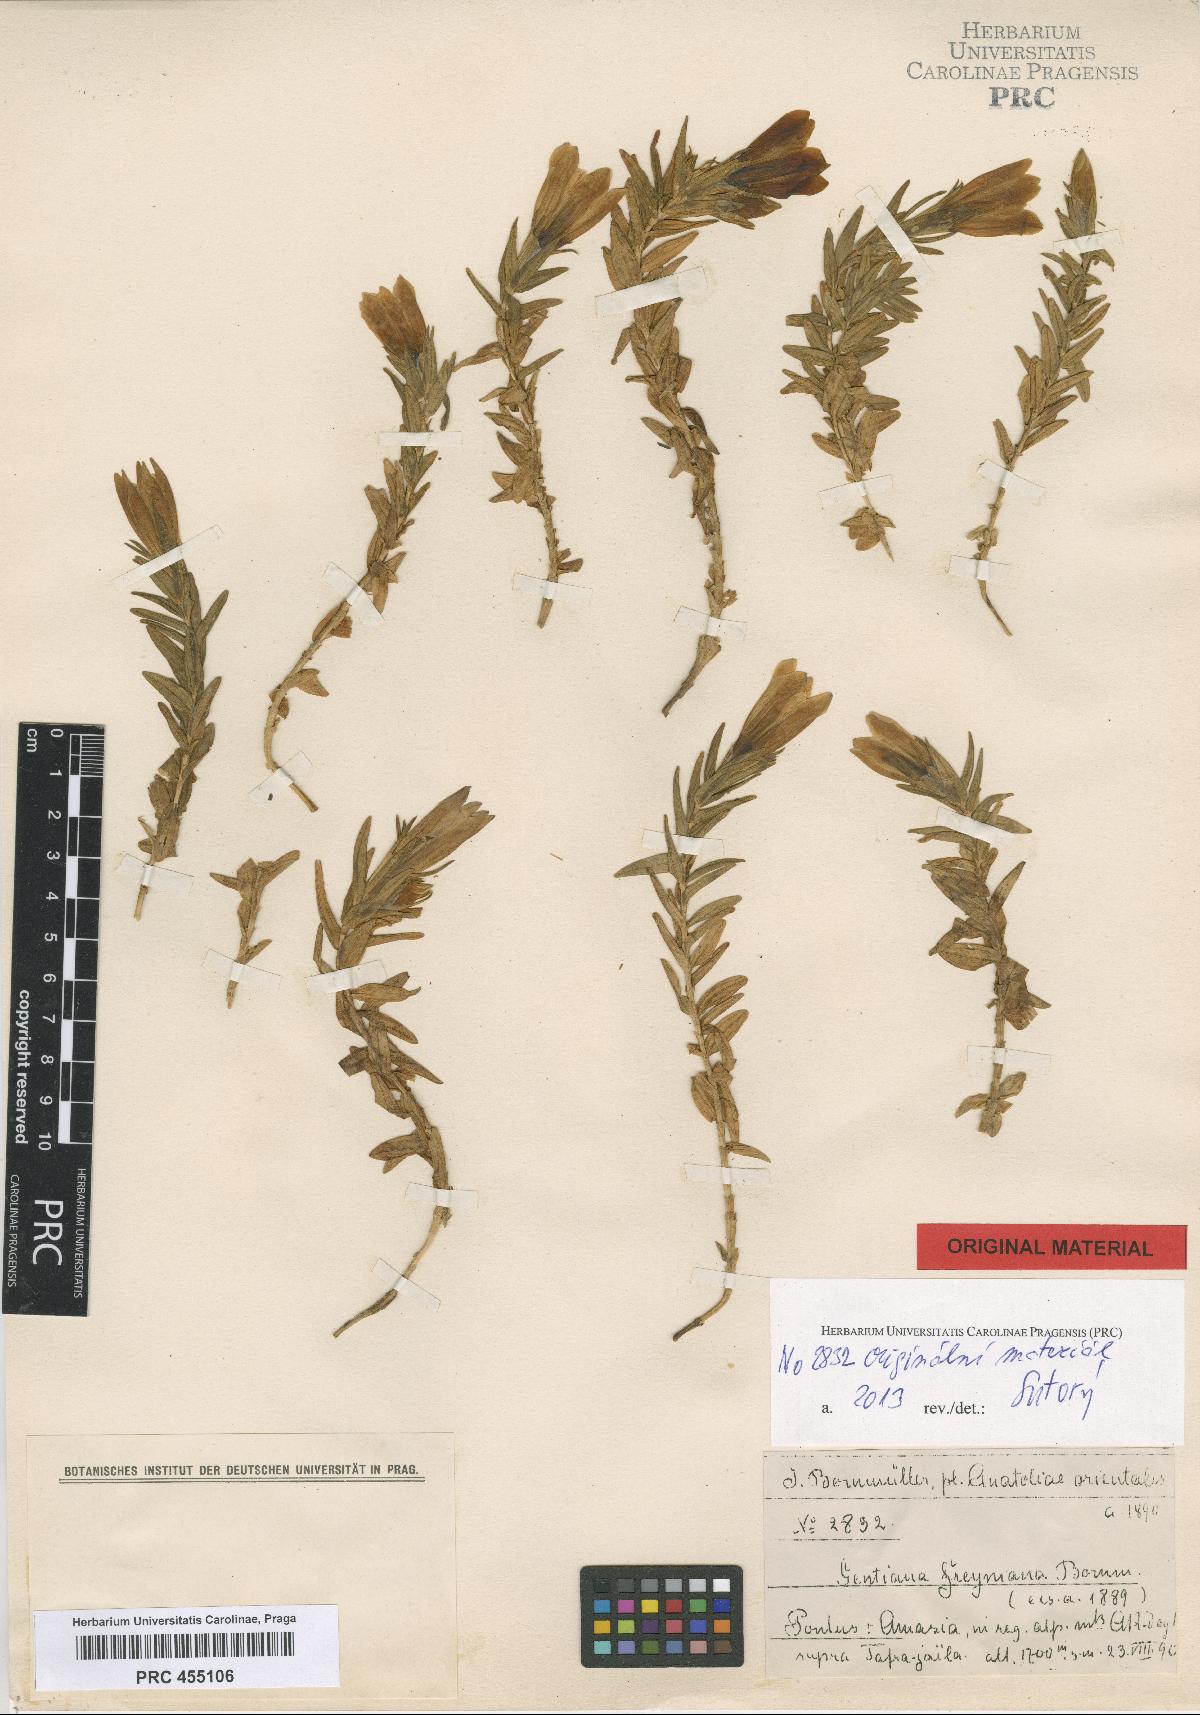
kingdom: Plantae
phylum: Tracheophyta
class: Magnoliopsida
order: Gentianales
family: Gentianaceae
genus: Gentiana
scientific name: Gentiana septemfida
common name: Crested gentian
